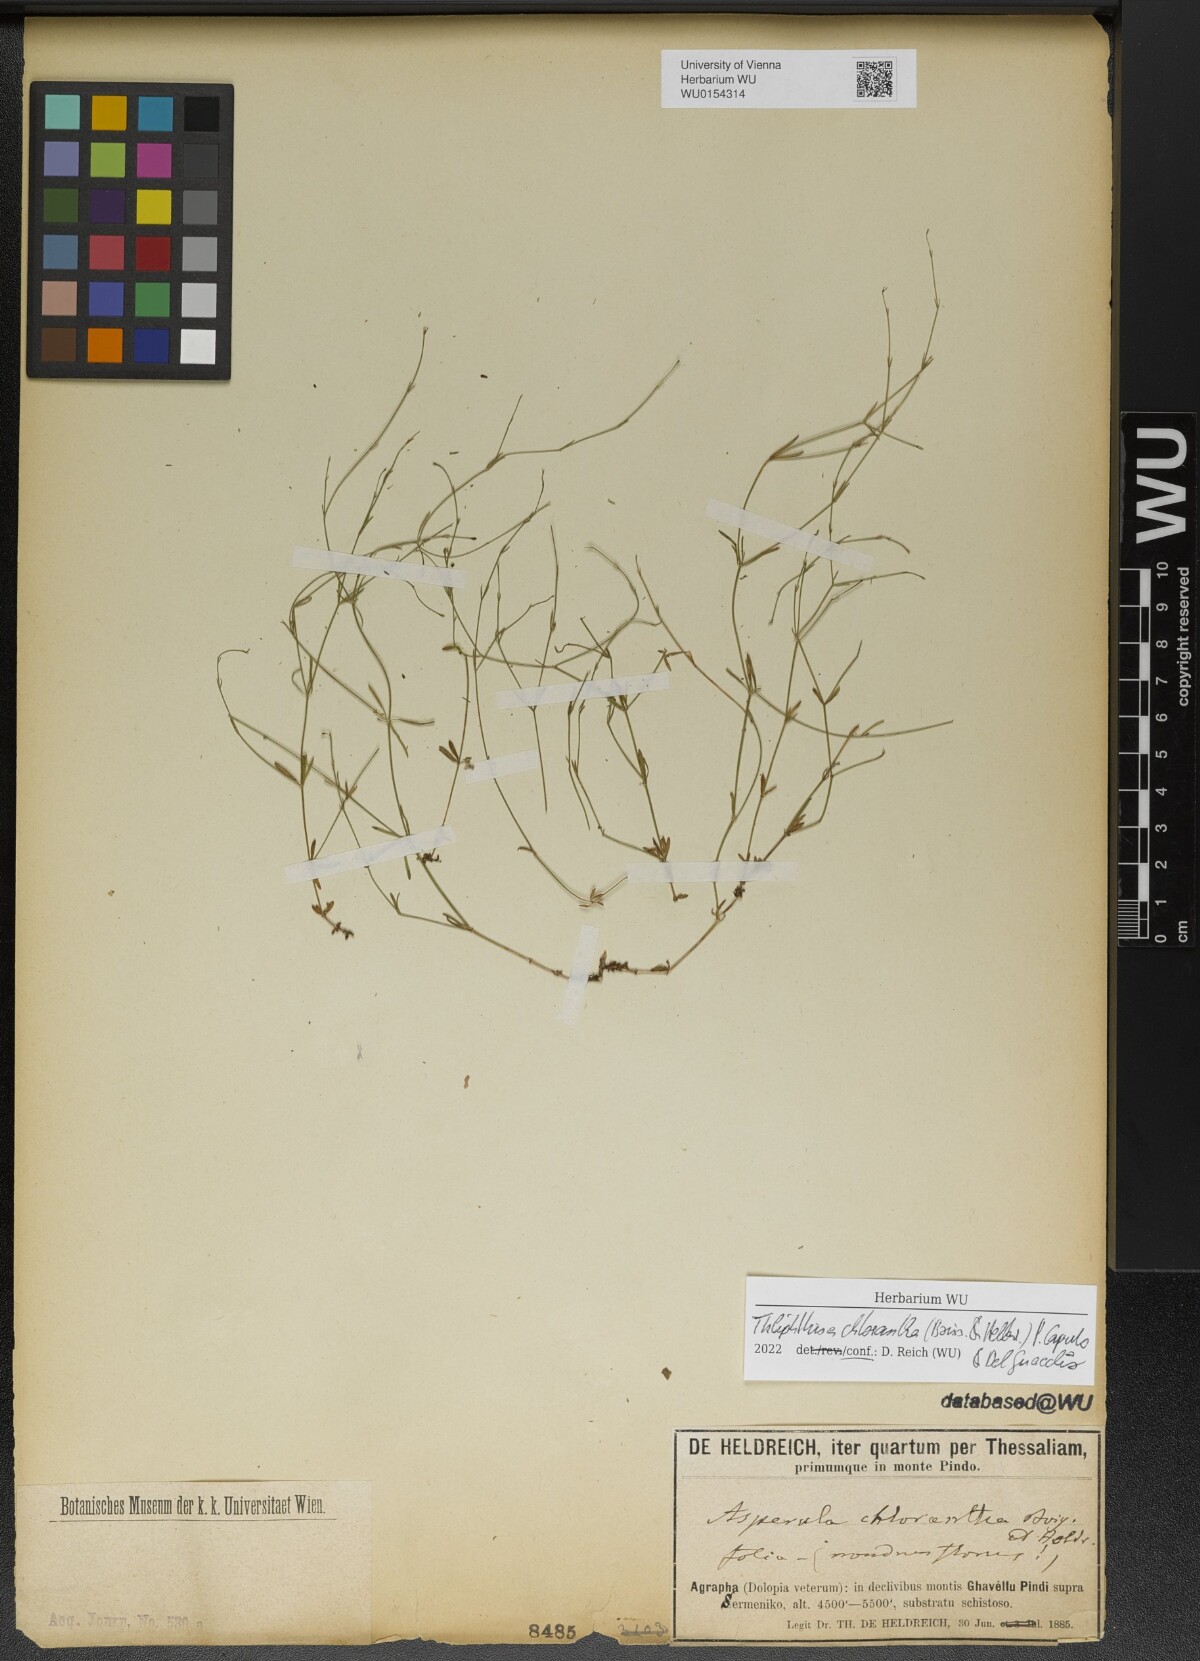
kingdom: Plantae
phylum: Tracheophyta
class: Magnoliopsida
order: Gentianales
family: Rubiaceae
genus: Thliphthisa
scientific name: Thliphthisa chlorantha
